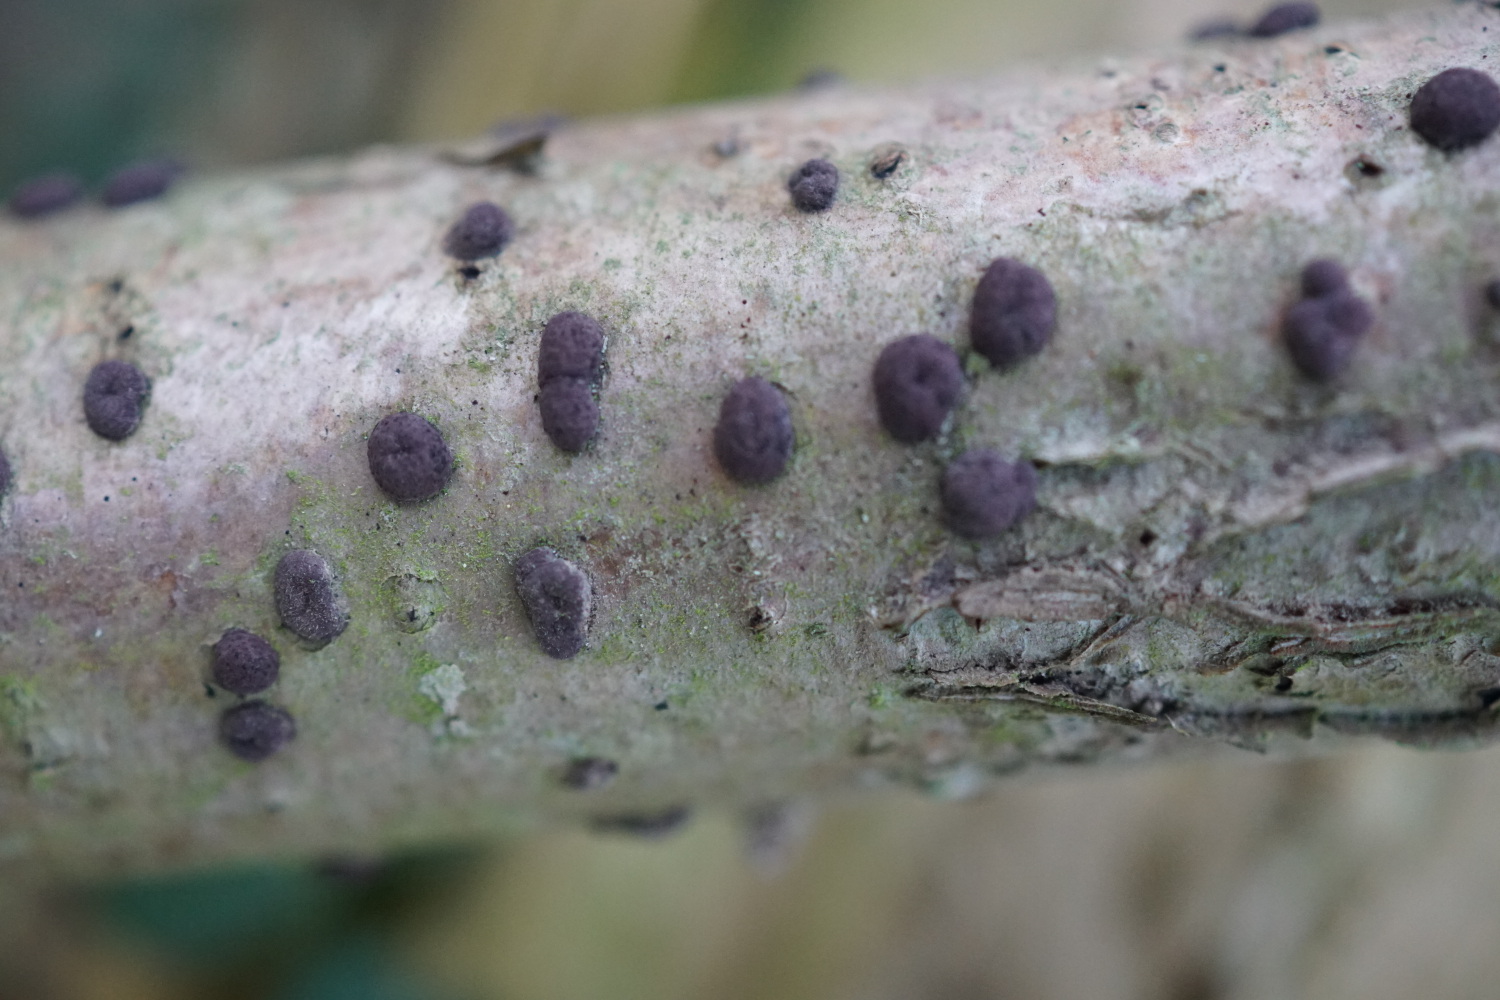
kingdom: Fungi
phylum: Ascomycota
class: Sordariomycetes
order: Xylariales
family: Hypoxylaceae
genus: Hypoxylon
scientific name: Hypoxylon fuscum
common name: kegleformet kulbær
